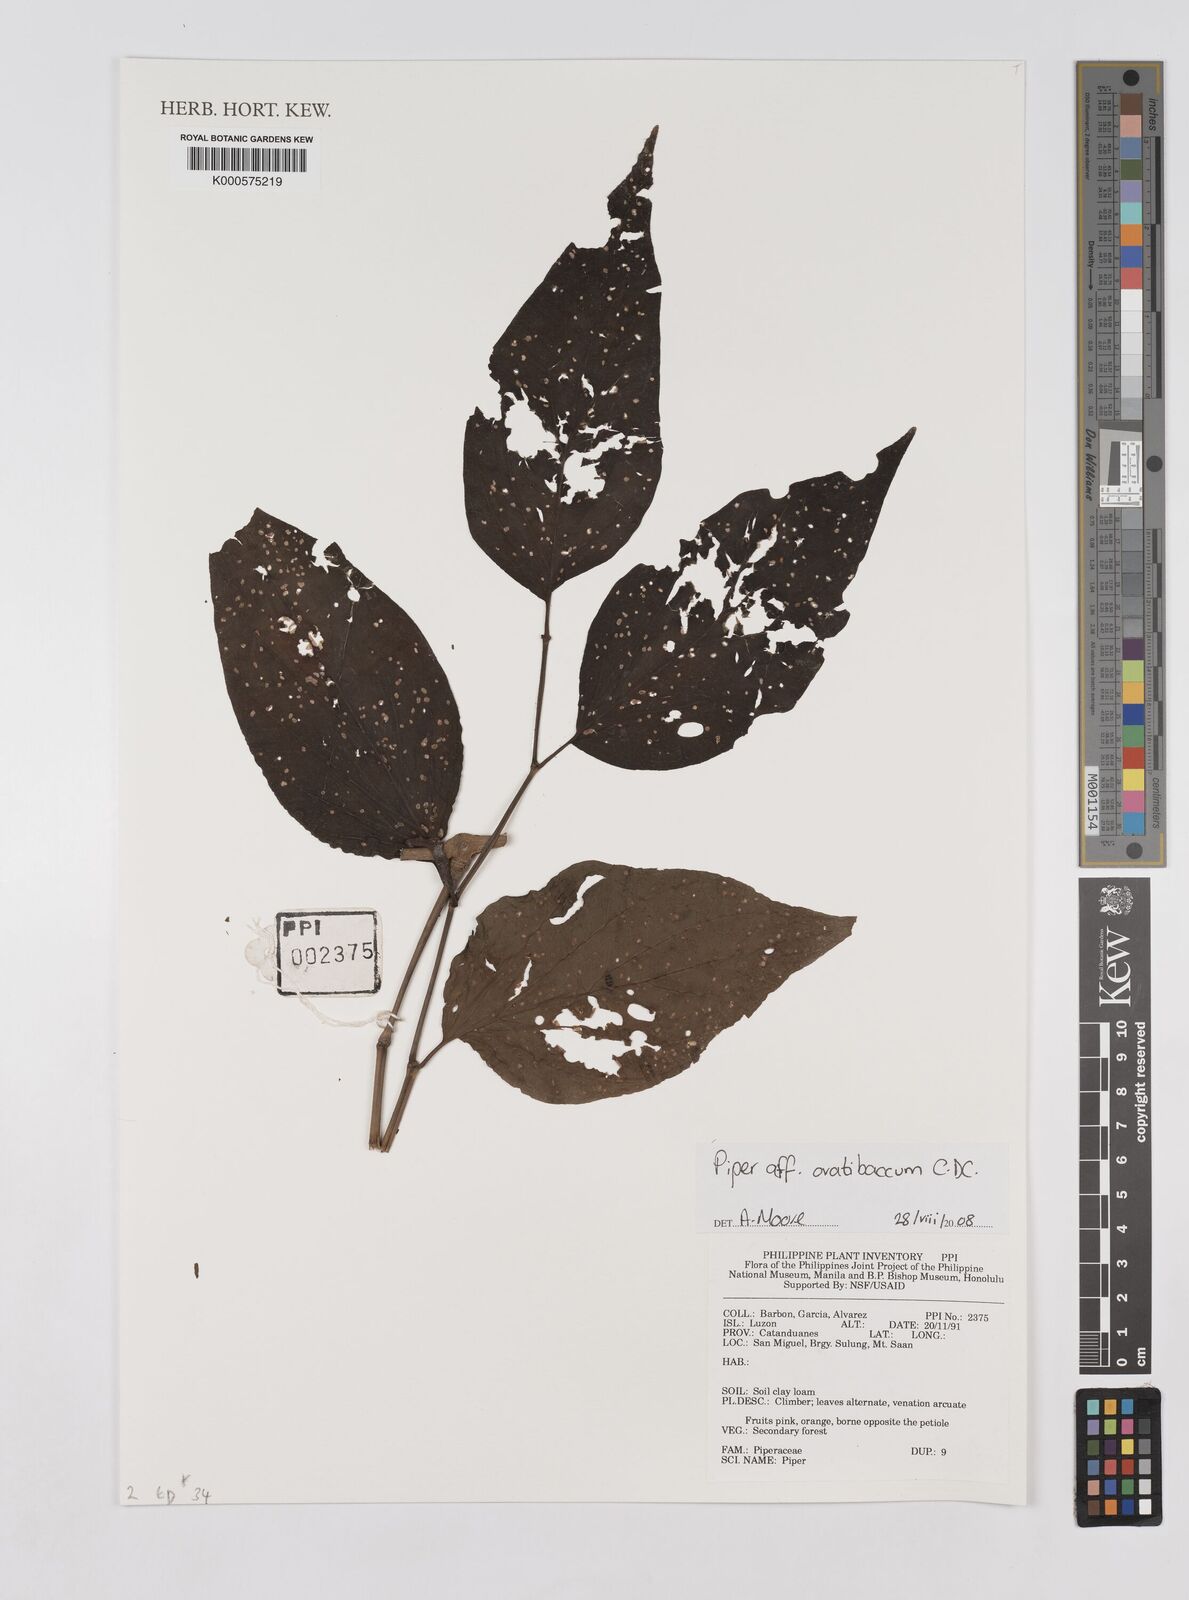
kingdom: Plantae
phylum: Tracheophyta
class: Magnoliopsida
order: Piperales
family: Piperaceae
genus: Piper
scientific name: Piper ovatibaccum
